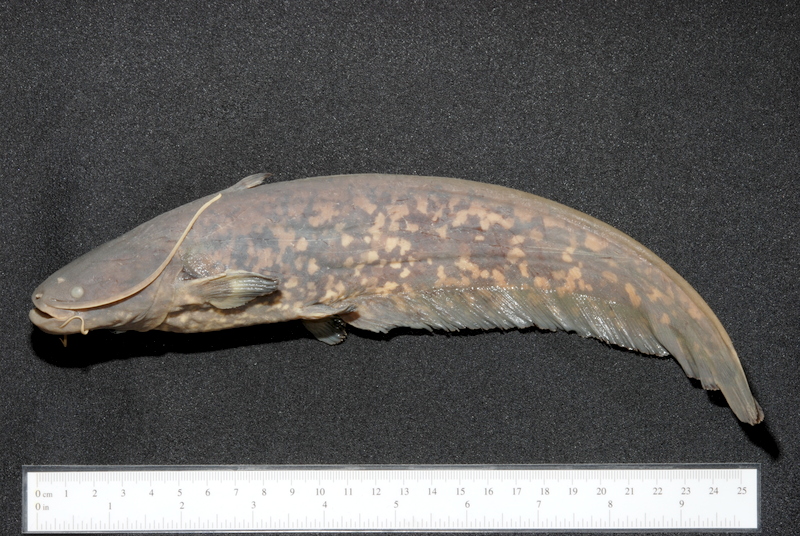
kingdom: Animalia
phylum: Chordata
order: Siluriformes
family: Siluridae
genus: Silurus
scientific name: Silurus glanis
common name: Wels
